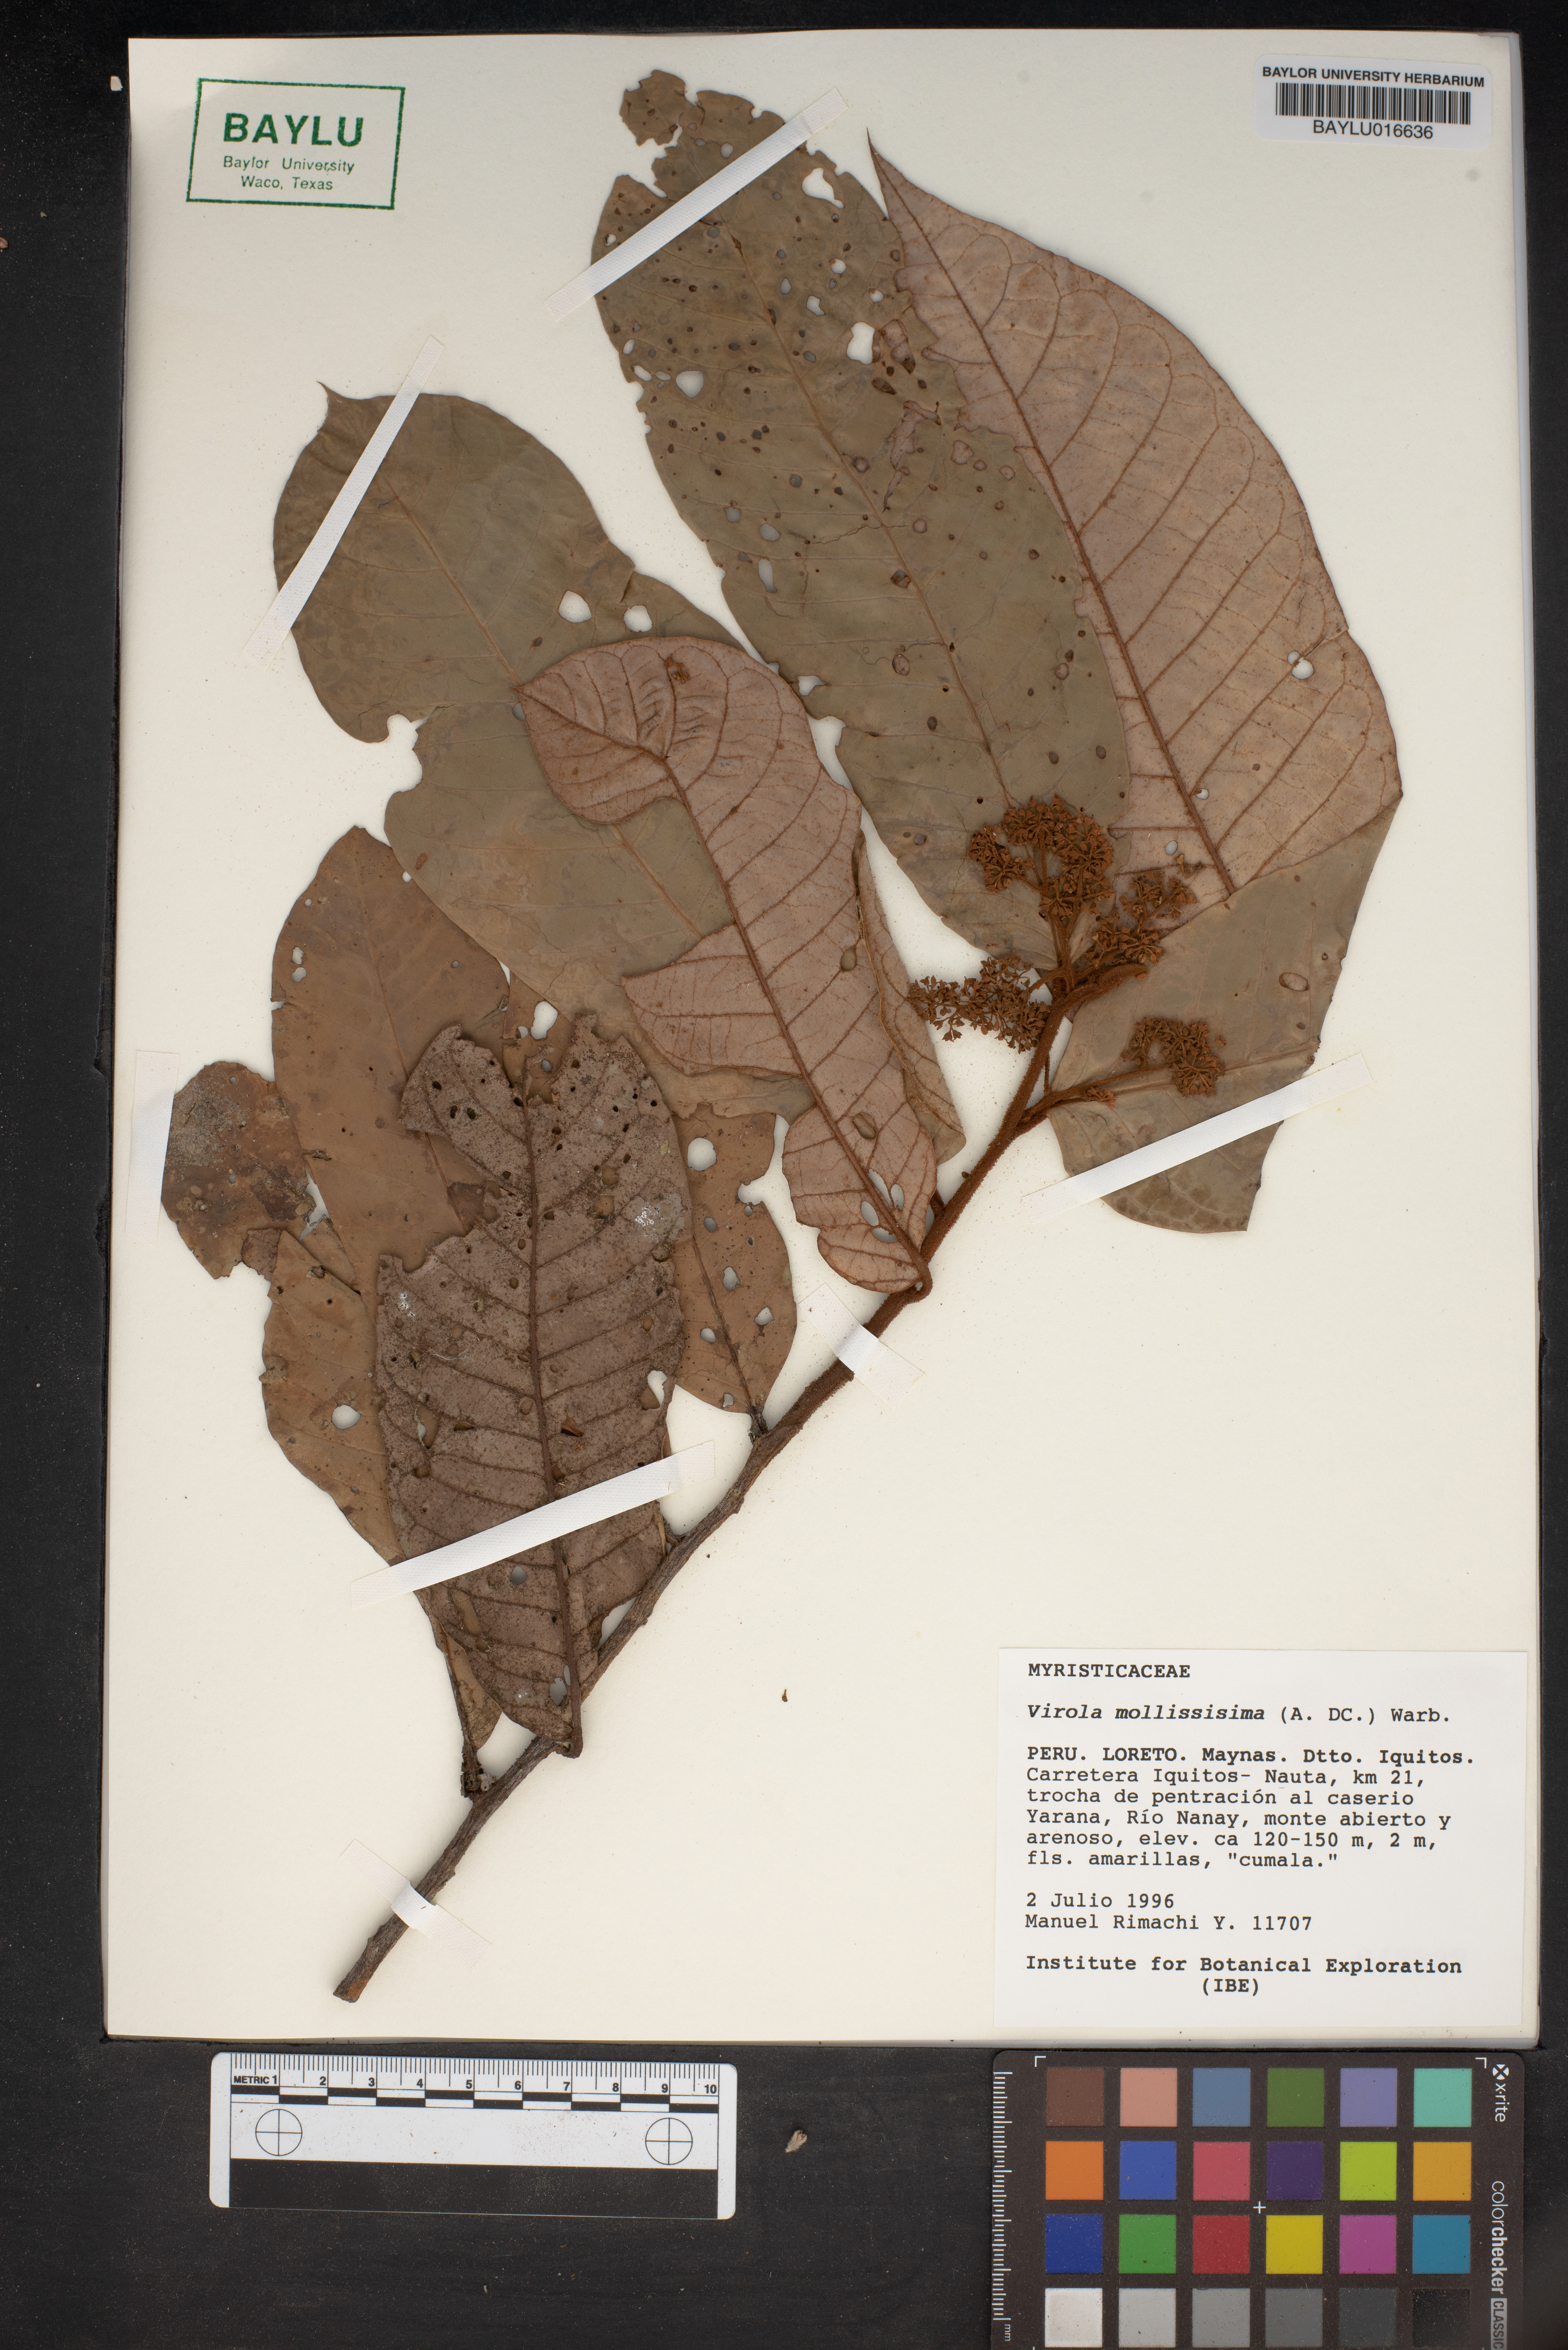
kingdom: Plantae
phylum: Tracheophyta
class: Magnoliopsida
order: Magnoliales
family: Myristicaceae
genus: Virola
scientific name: Virola mollissima
